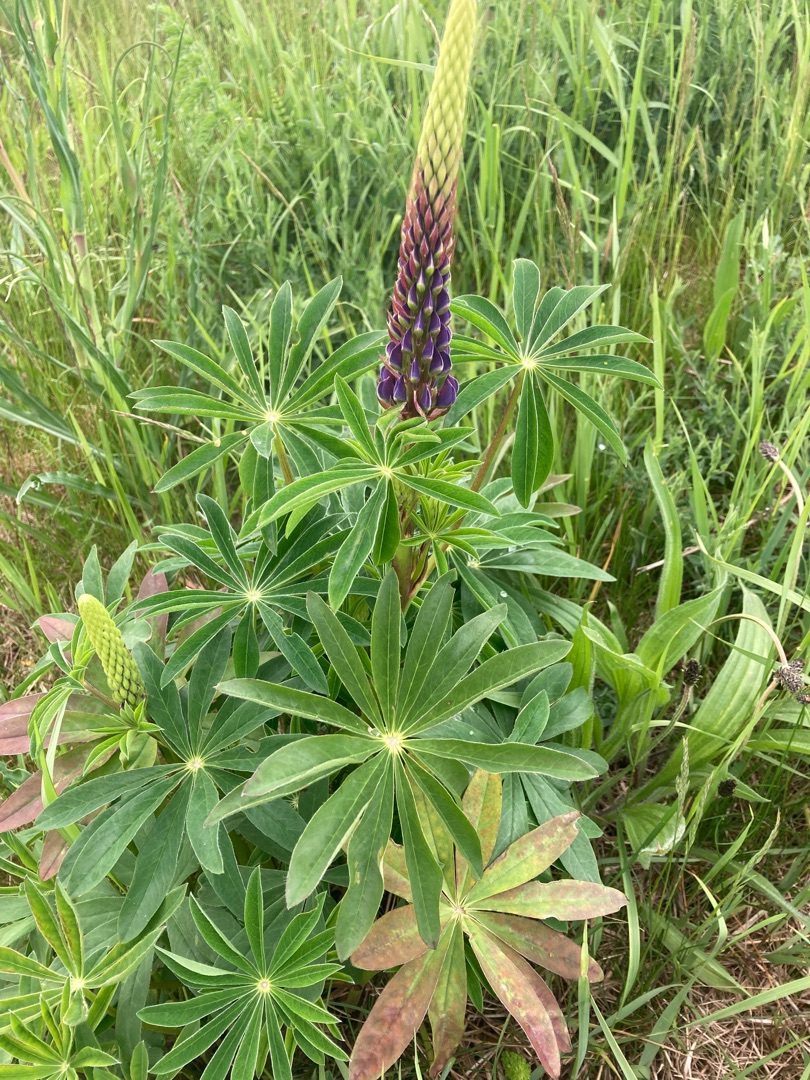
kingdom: Plantae
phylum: Tracheophyta
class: Magnoliopsida
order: Fabales
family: Fabaceae
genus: Lupinus
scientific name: Lupinus polyphyllus
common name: Mangebladet lupin
